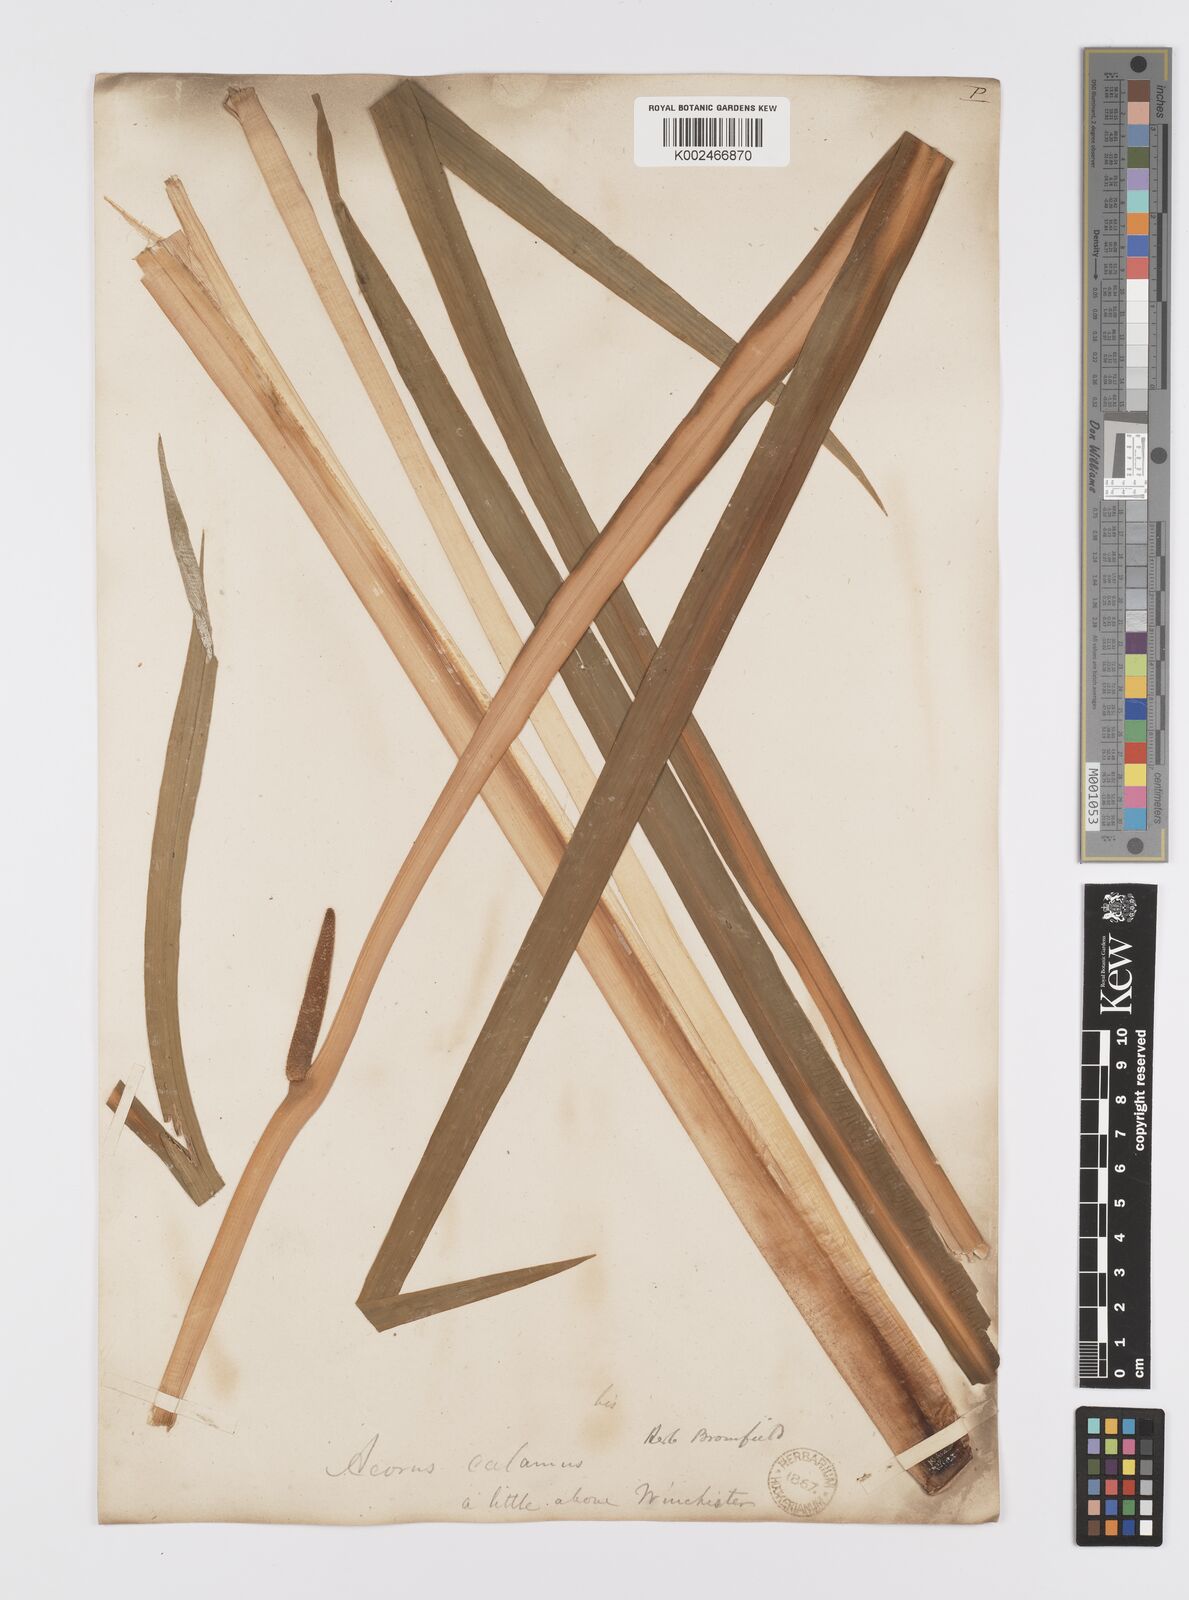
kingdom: Plantae
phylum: Tracheophyta
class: Liliopsida
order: Acorales
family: Acoraceae
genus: Acorus
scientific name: Acorus calamus
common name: Sweet-flag
